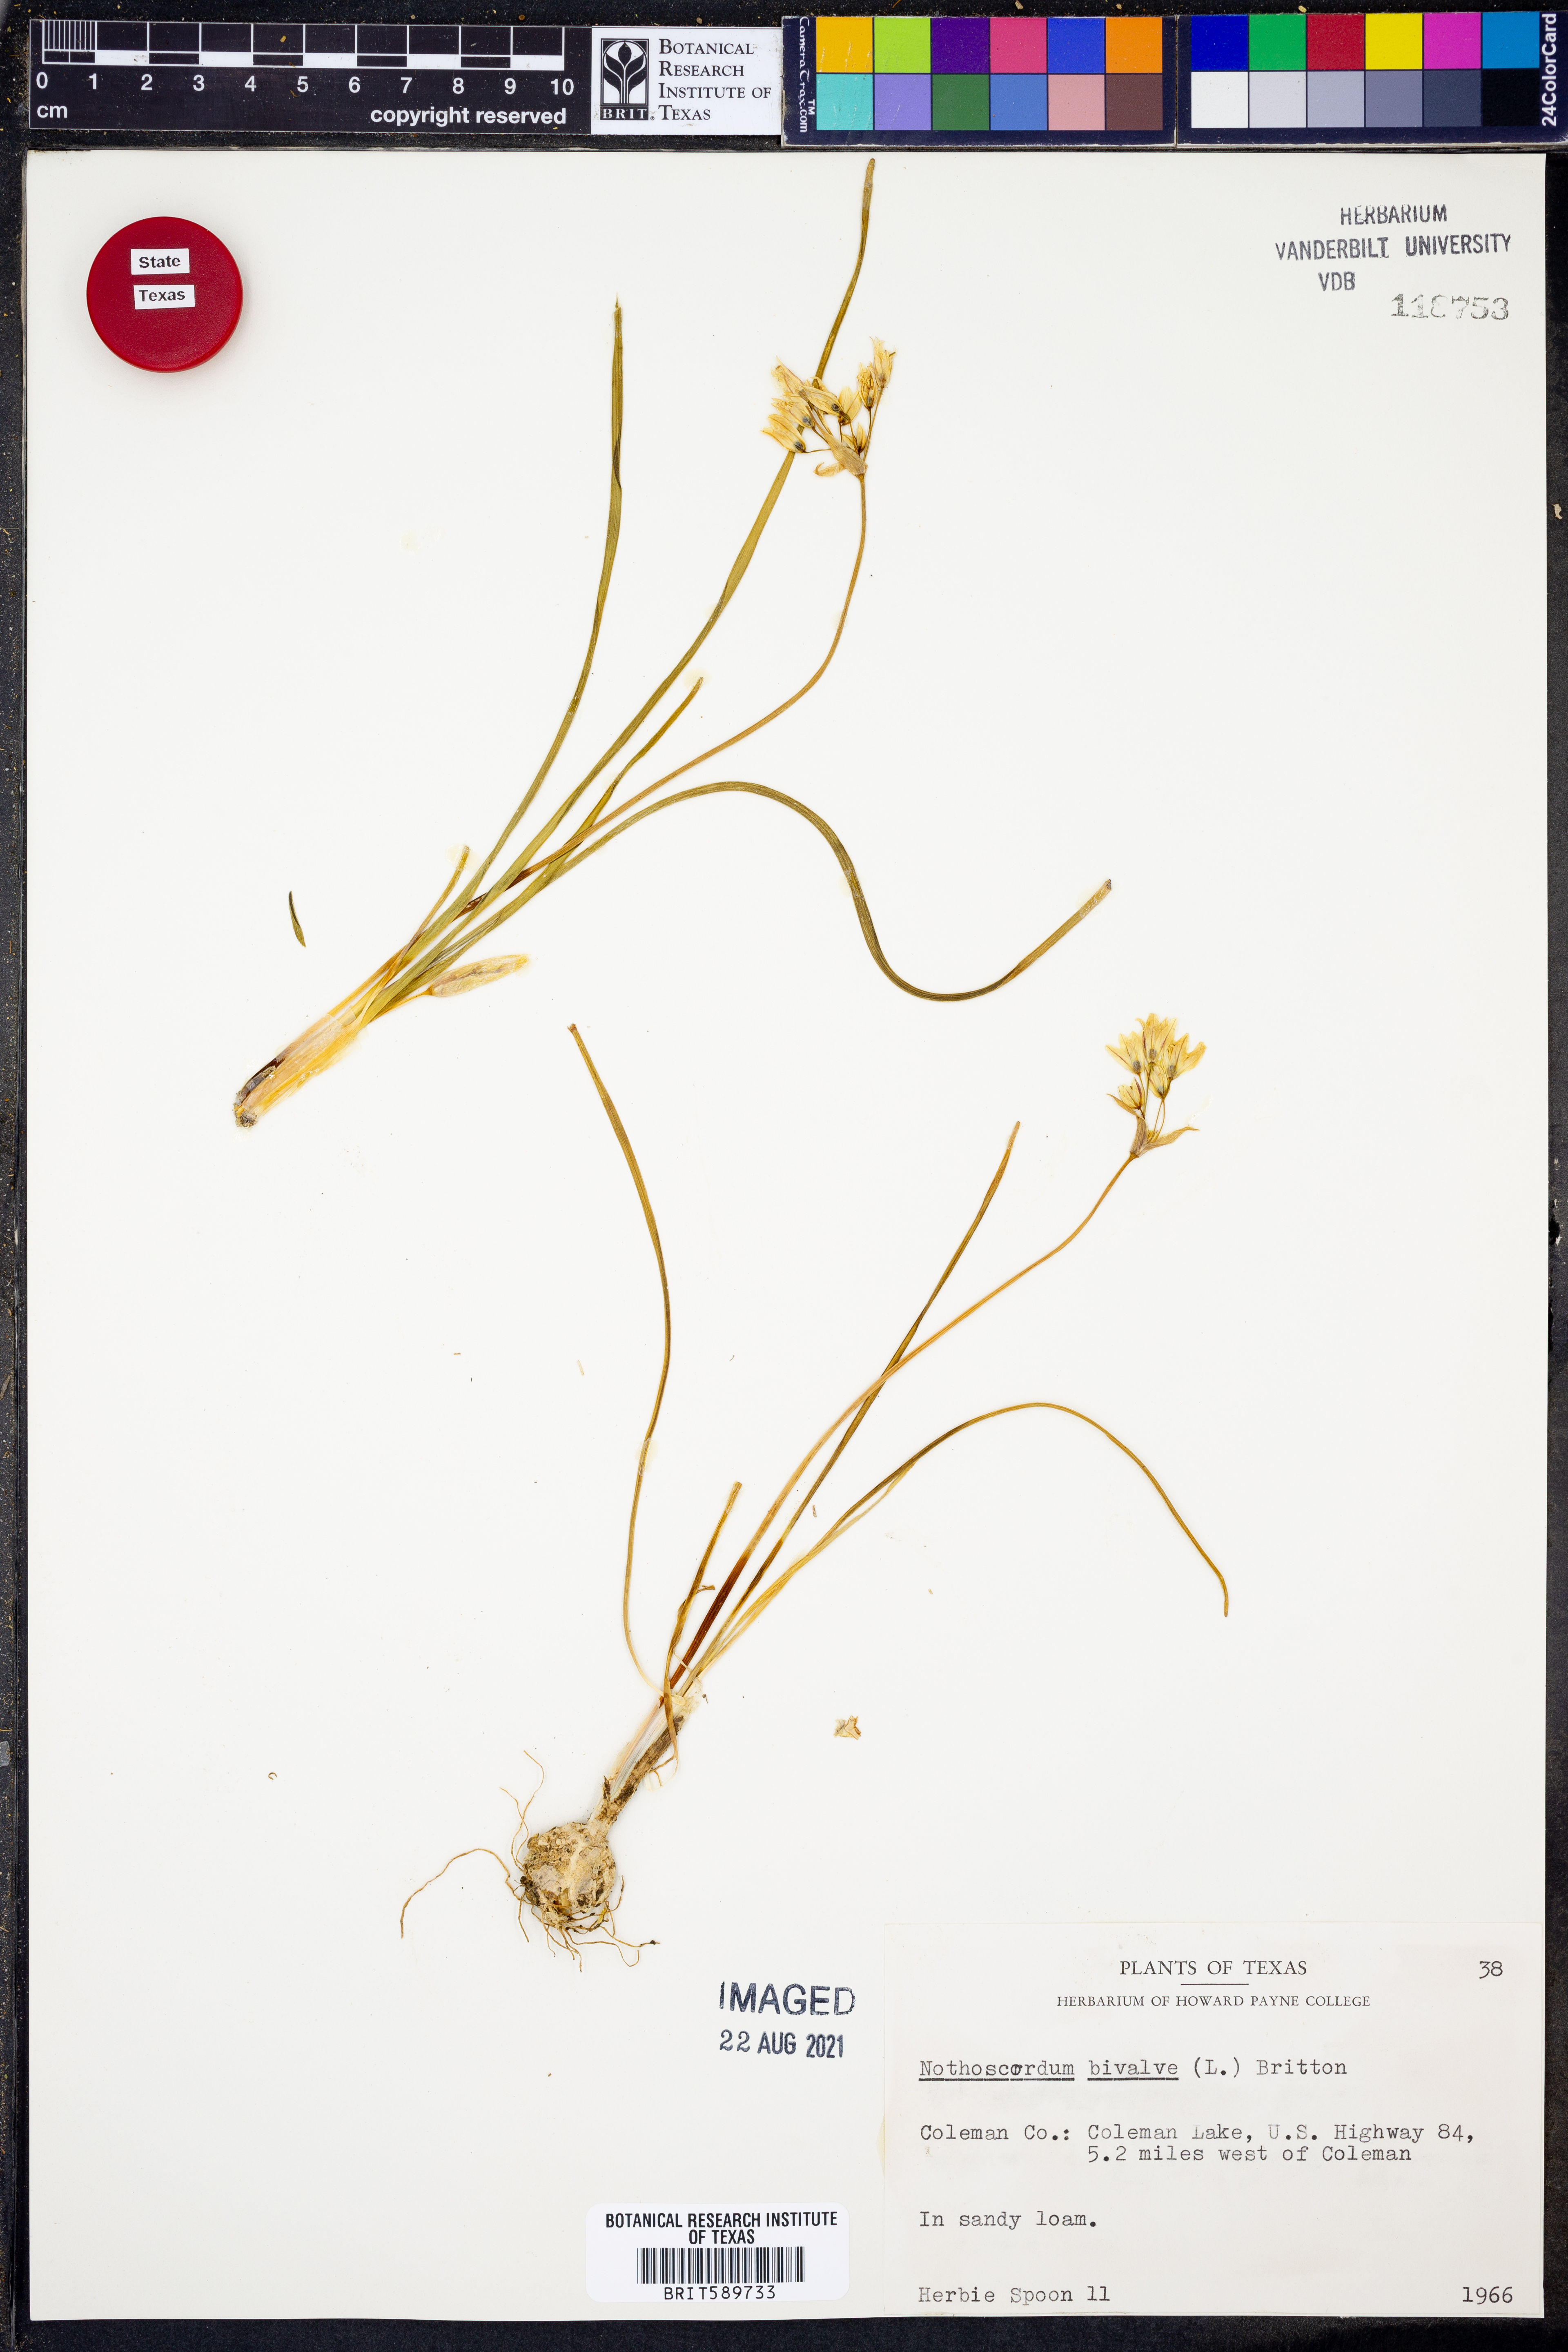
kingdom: Plantae
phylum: Tracheophyta
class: Liliopsida
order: Asparagales
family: Amaryllidaceae
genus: Nothoscordum
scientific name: Nothoscordum bivalve
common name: Crow-poison
